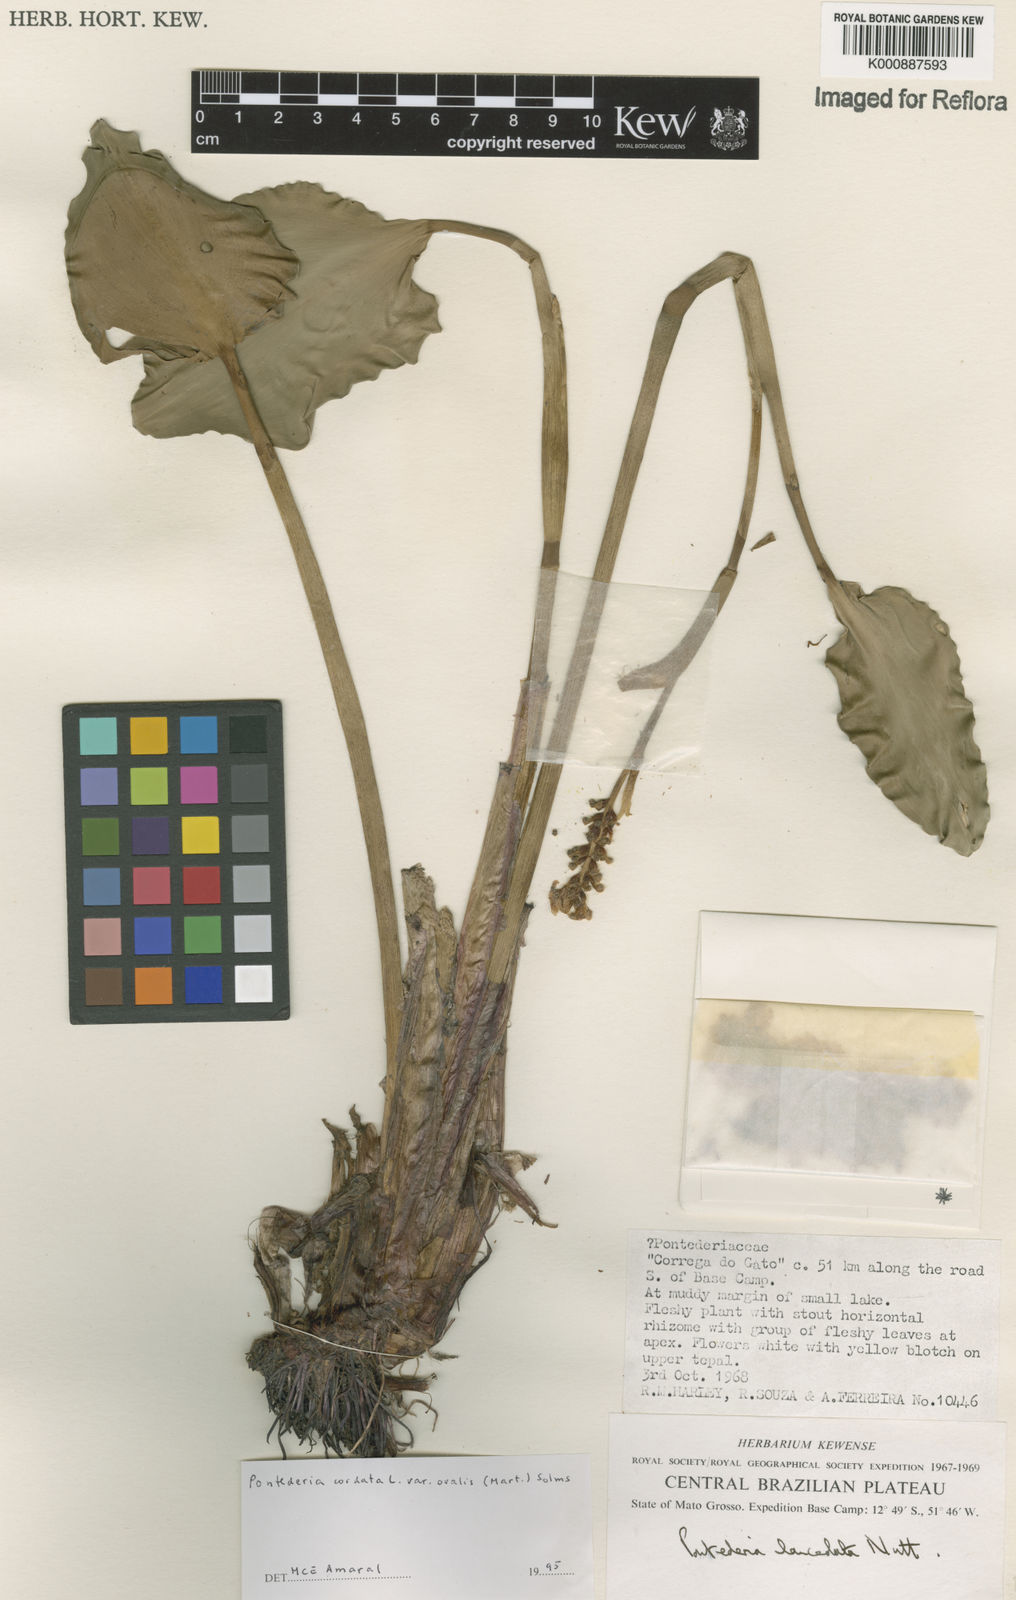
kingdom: Plantae
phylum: Tracheophyta
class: Liliopsida
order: Commelinales
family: Pontederiaceae
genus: Pontederia
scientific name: Pontederia cordata
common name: Pickerelweed
